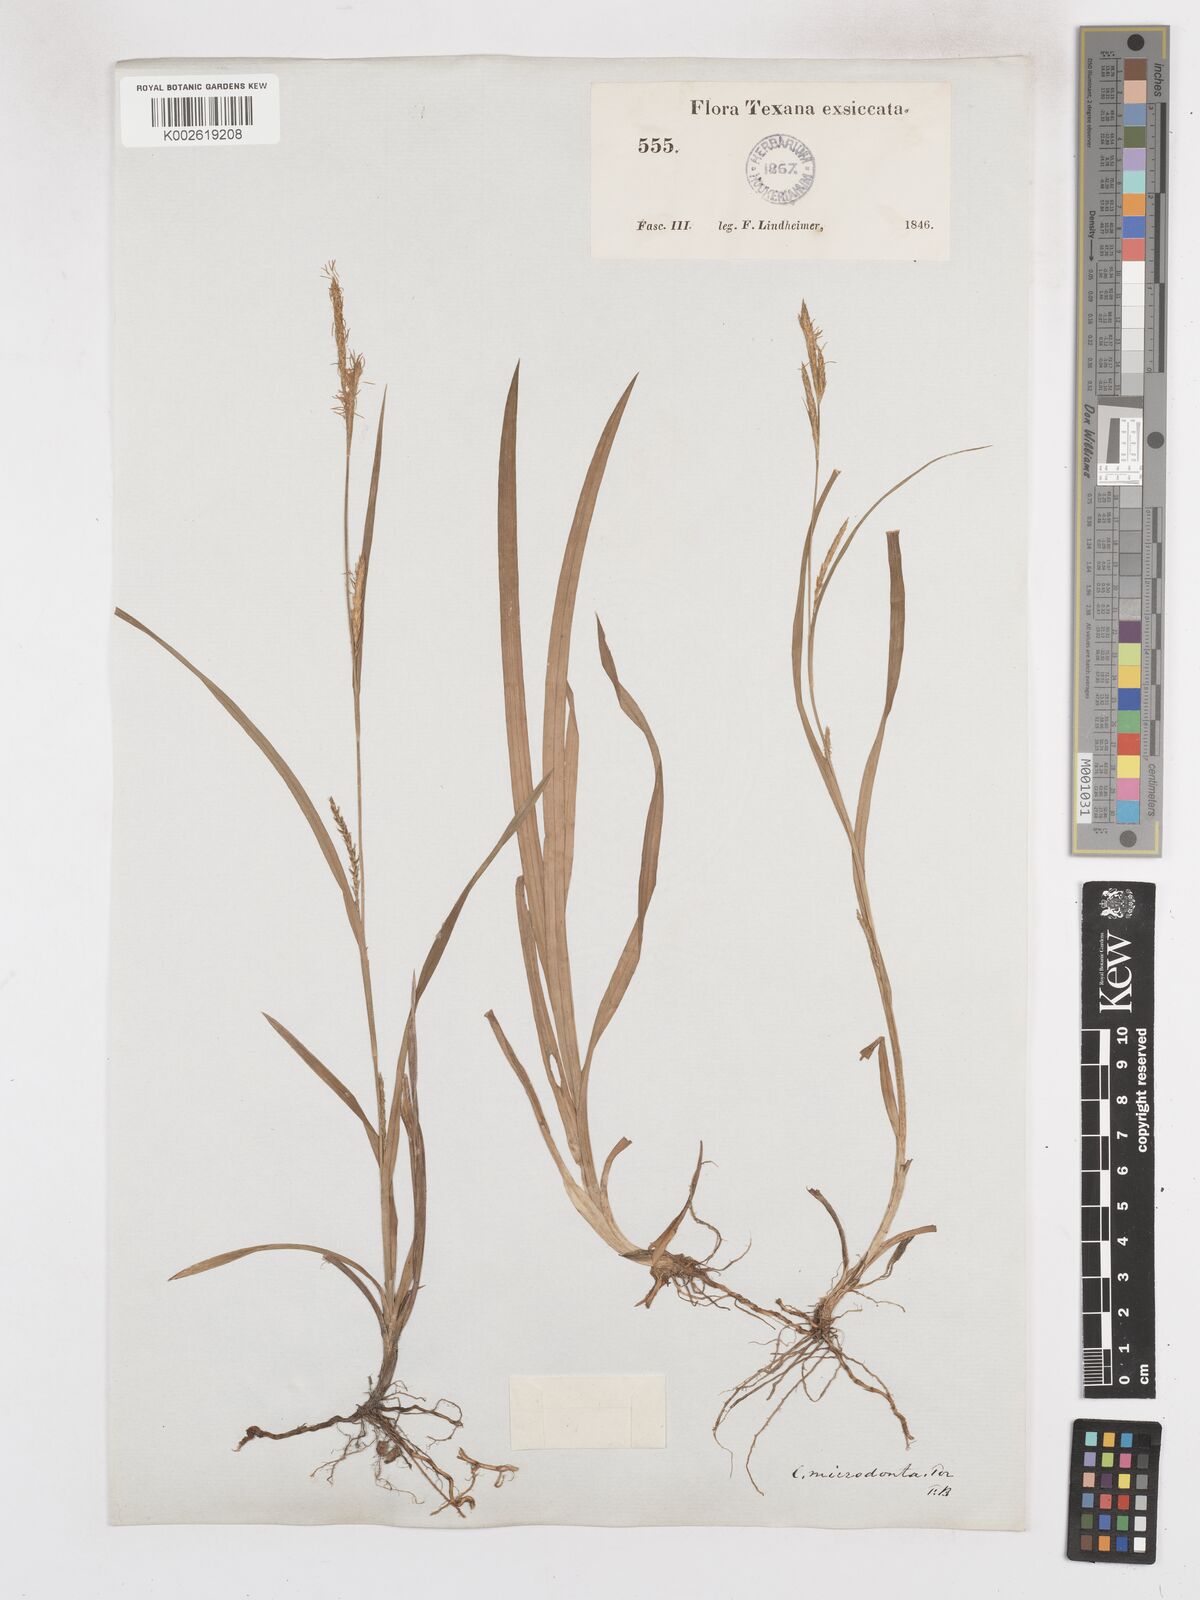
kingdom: Plantae
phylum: Tracheophyta
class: Liliopsida
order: Poales
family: Cyperaceae
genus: Carex
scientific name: Carex microdonta
